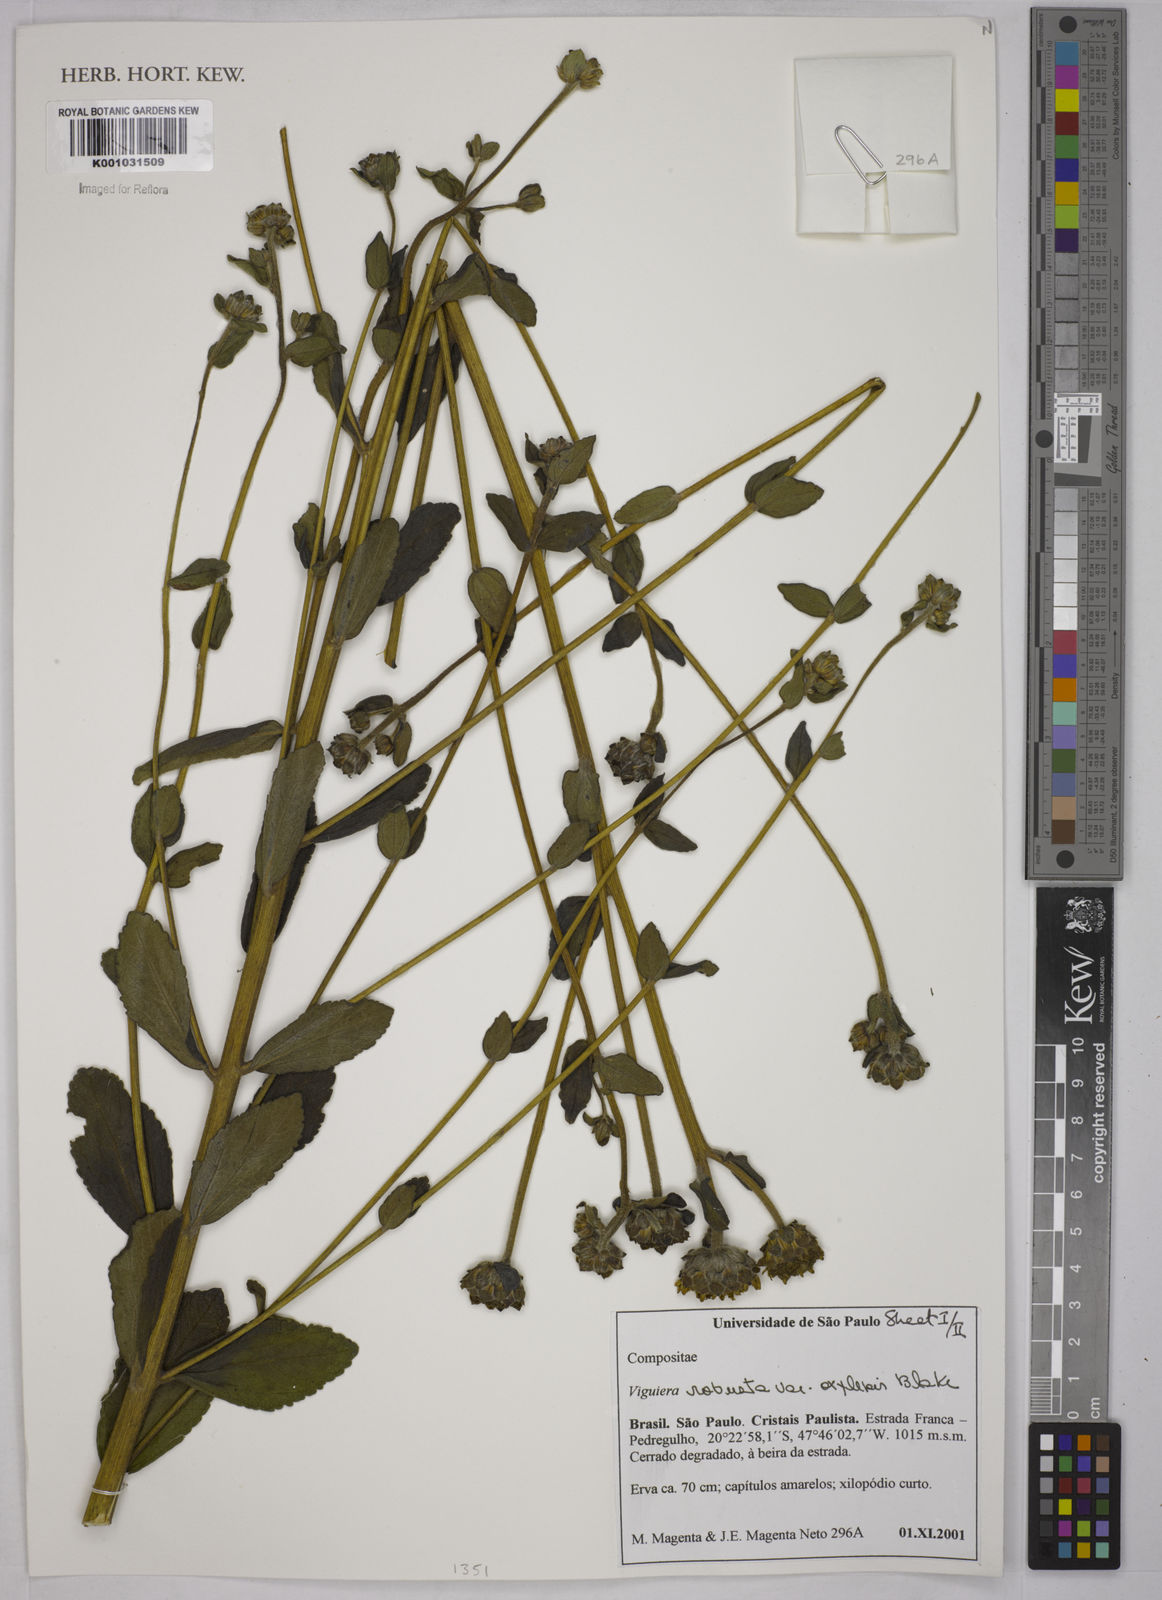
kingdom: Plantae
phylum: Tracheophyta
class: Magnoliopsida
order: Asterales
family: Asteraceae
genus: Aldama
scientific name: Aldama robusta
